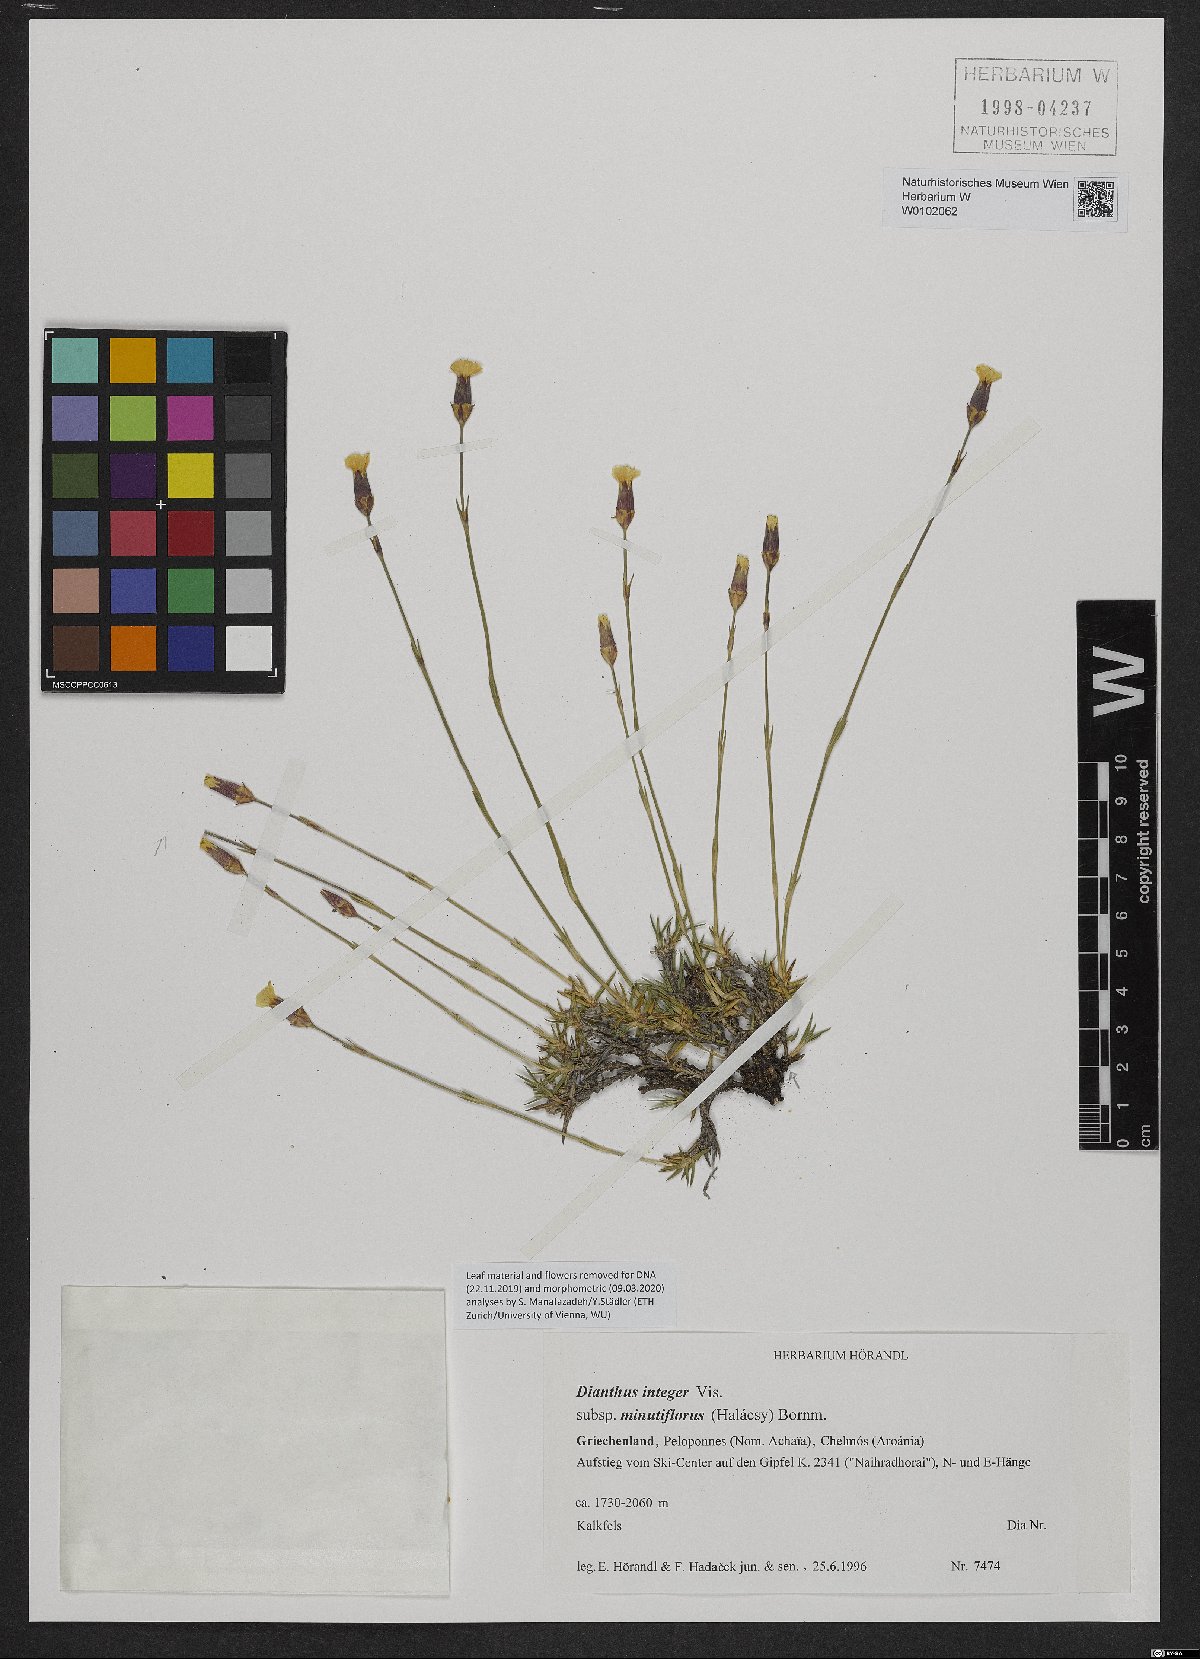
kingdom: Plantae
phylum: Tracheophyta
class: Magnoliopsida
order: Caryophyllales
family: Caryophyllaceae
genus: Dianthus
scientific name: Dianthus integer
